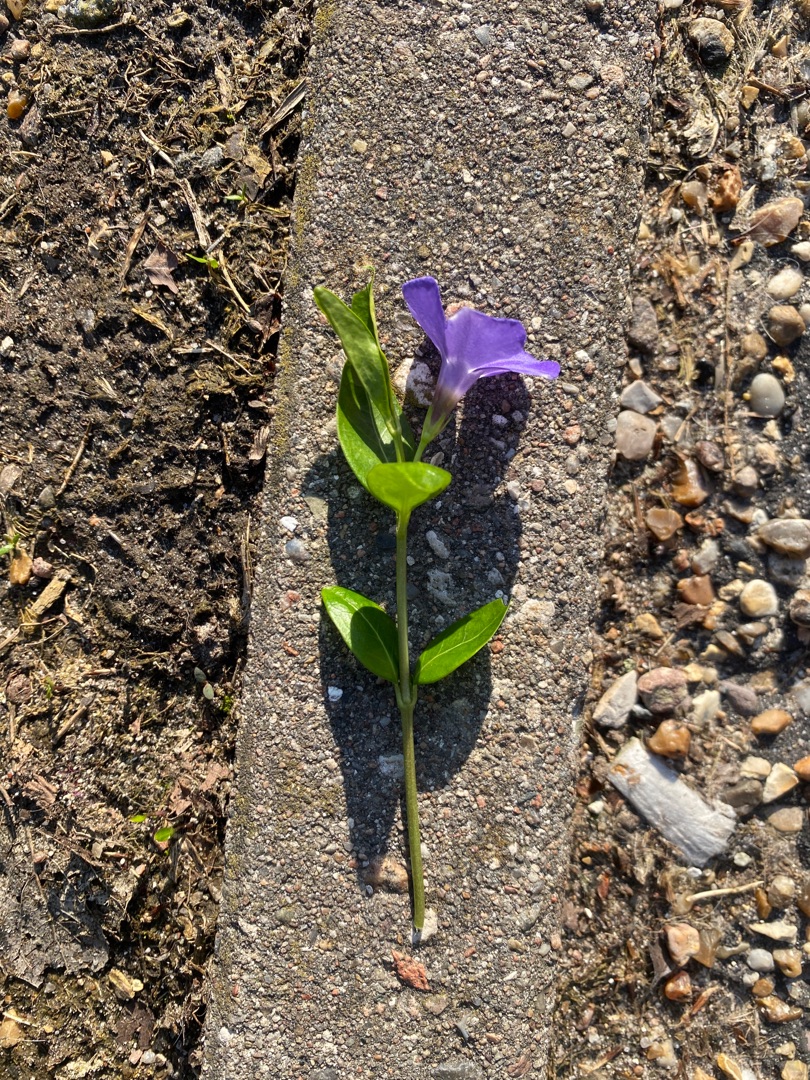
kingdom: Plantae
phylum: Tracheophyta
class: Magnoliopsida
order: Gentianales
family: Apocynaceae
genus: Vinca
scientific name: Vinca minor
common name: Liden singrøn
